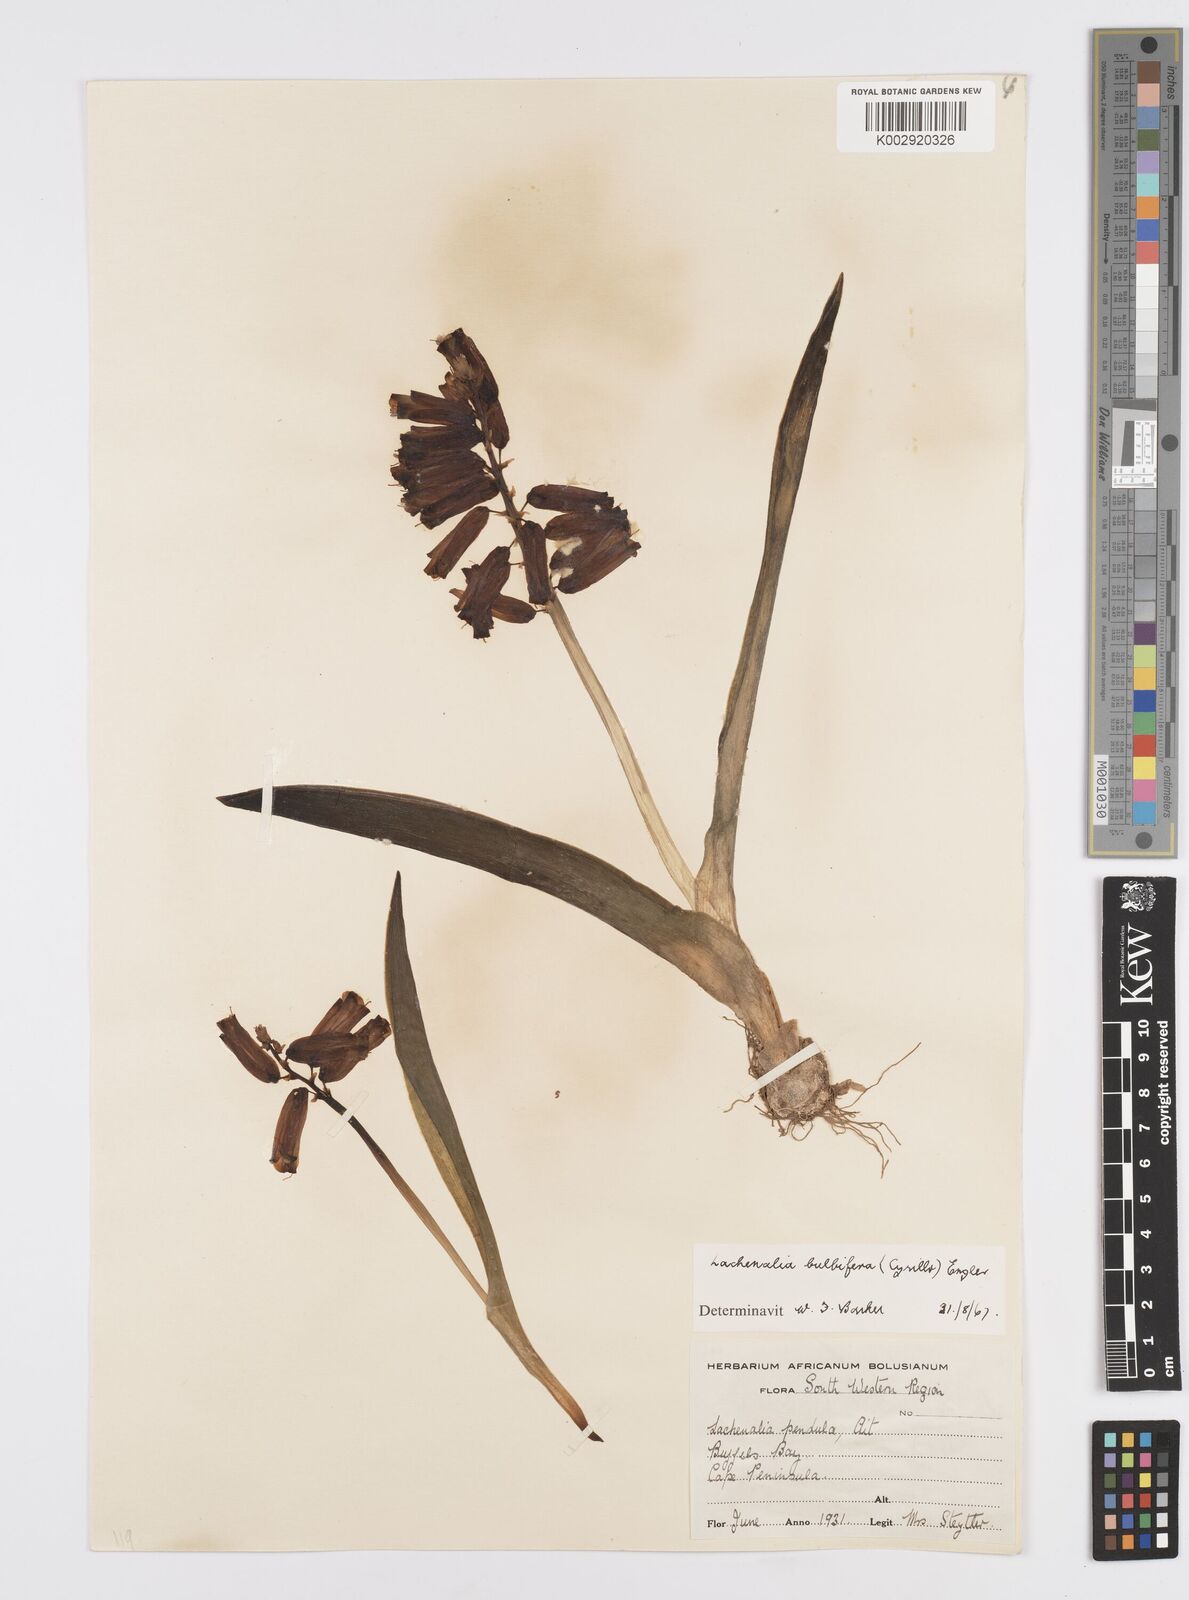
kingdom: Plantae
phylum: Tracheophyta
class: Liliopsida
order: Asparagales
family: Asparagaceae
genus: Lachenalia
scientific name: Lachenalia bulbifera
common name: Red lachenalia
